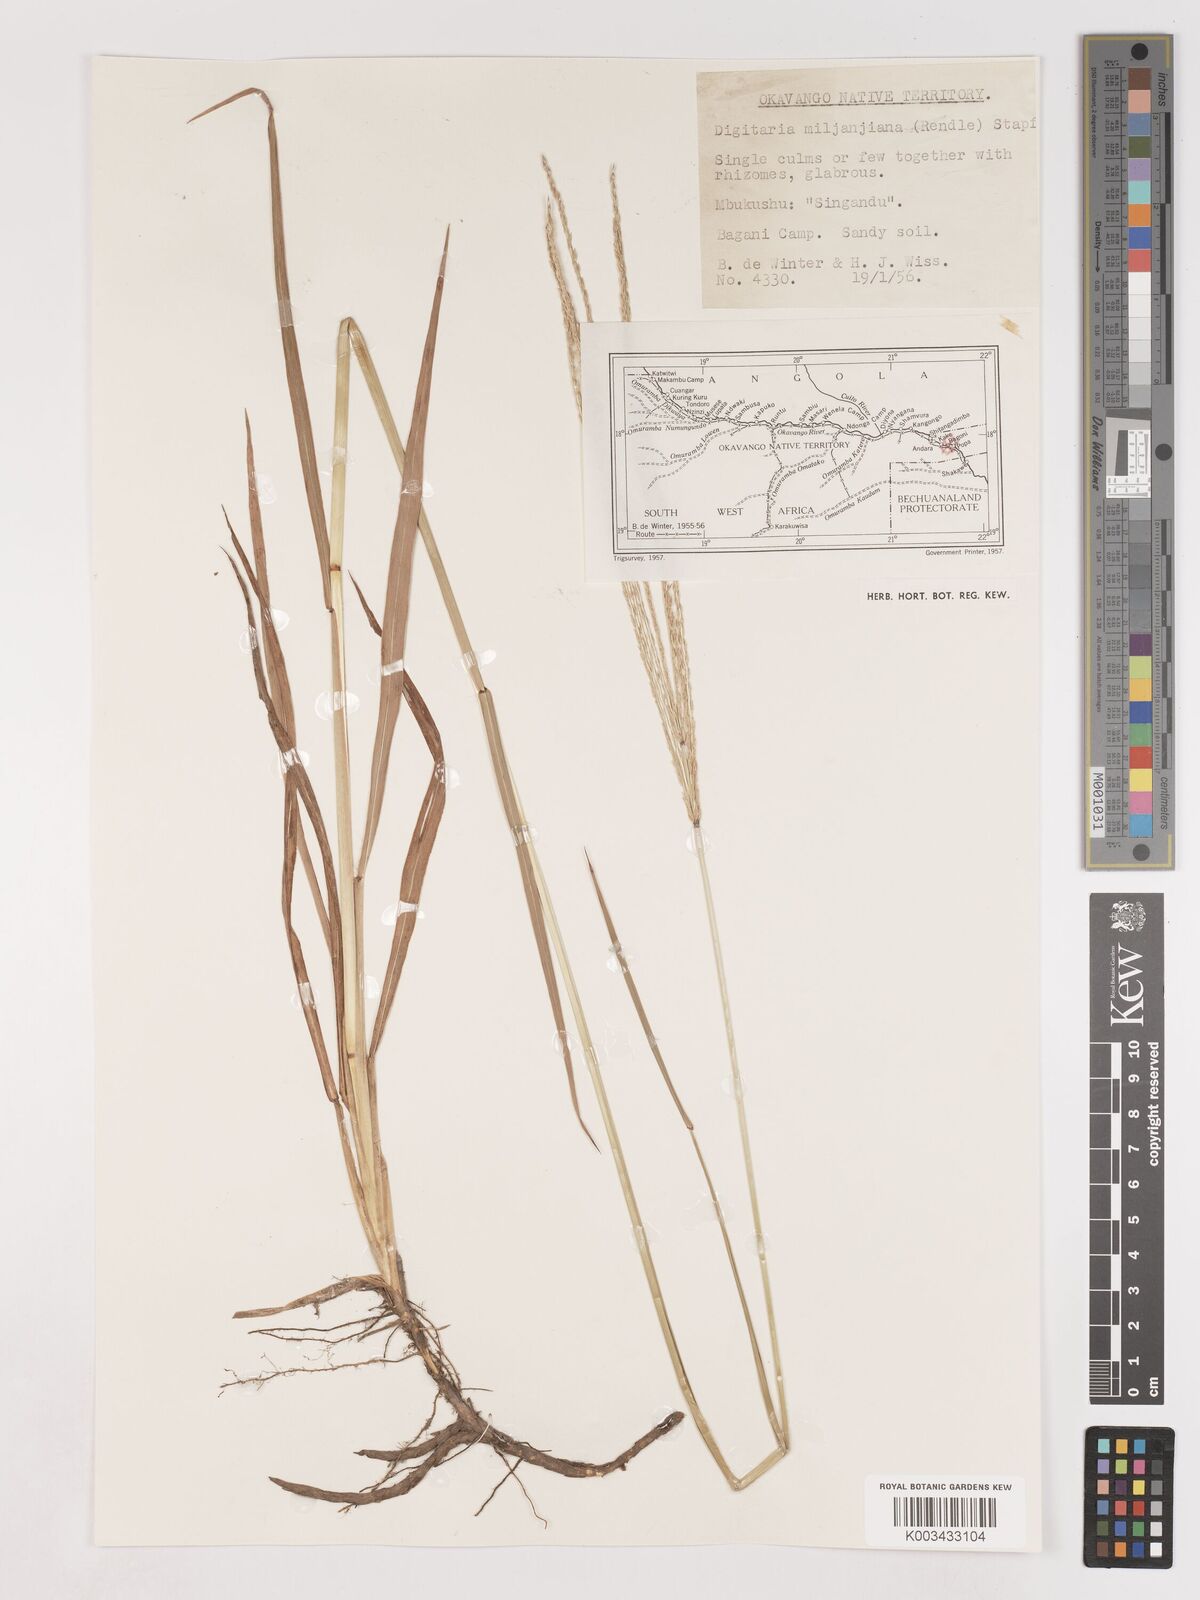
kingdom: Plantae
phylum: Tracheophyta
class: Liliopsida
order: Poales
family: Poaceae
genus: Digitaria
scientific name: Digitaria milanjiana
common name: Madagascar crabgrass
